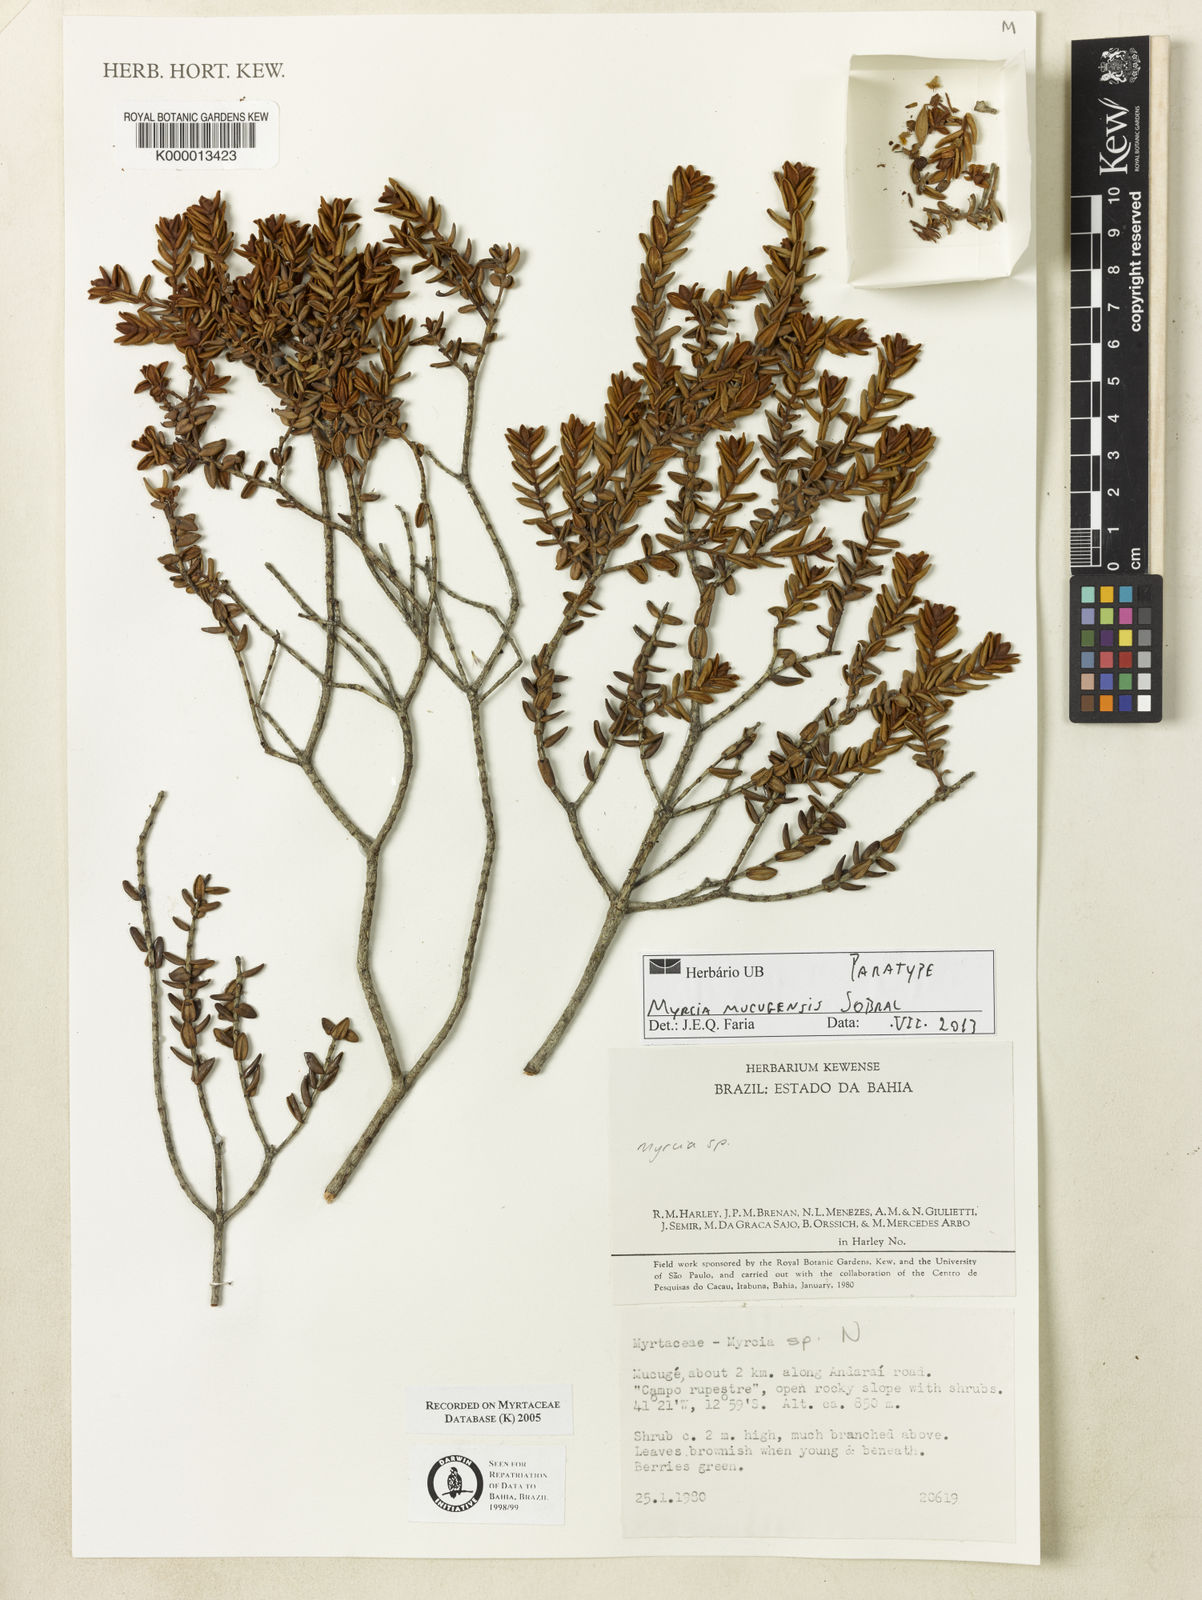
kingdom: Plantae
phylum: Tracheophyta
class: Magnoliopsida
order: Myrtales
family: Myrtaceae
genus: Myrcia
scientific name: Myrcia mucugensis
